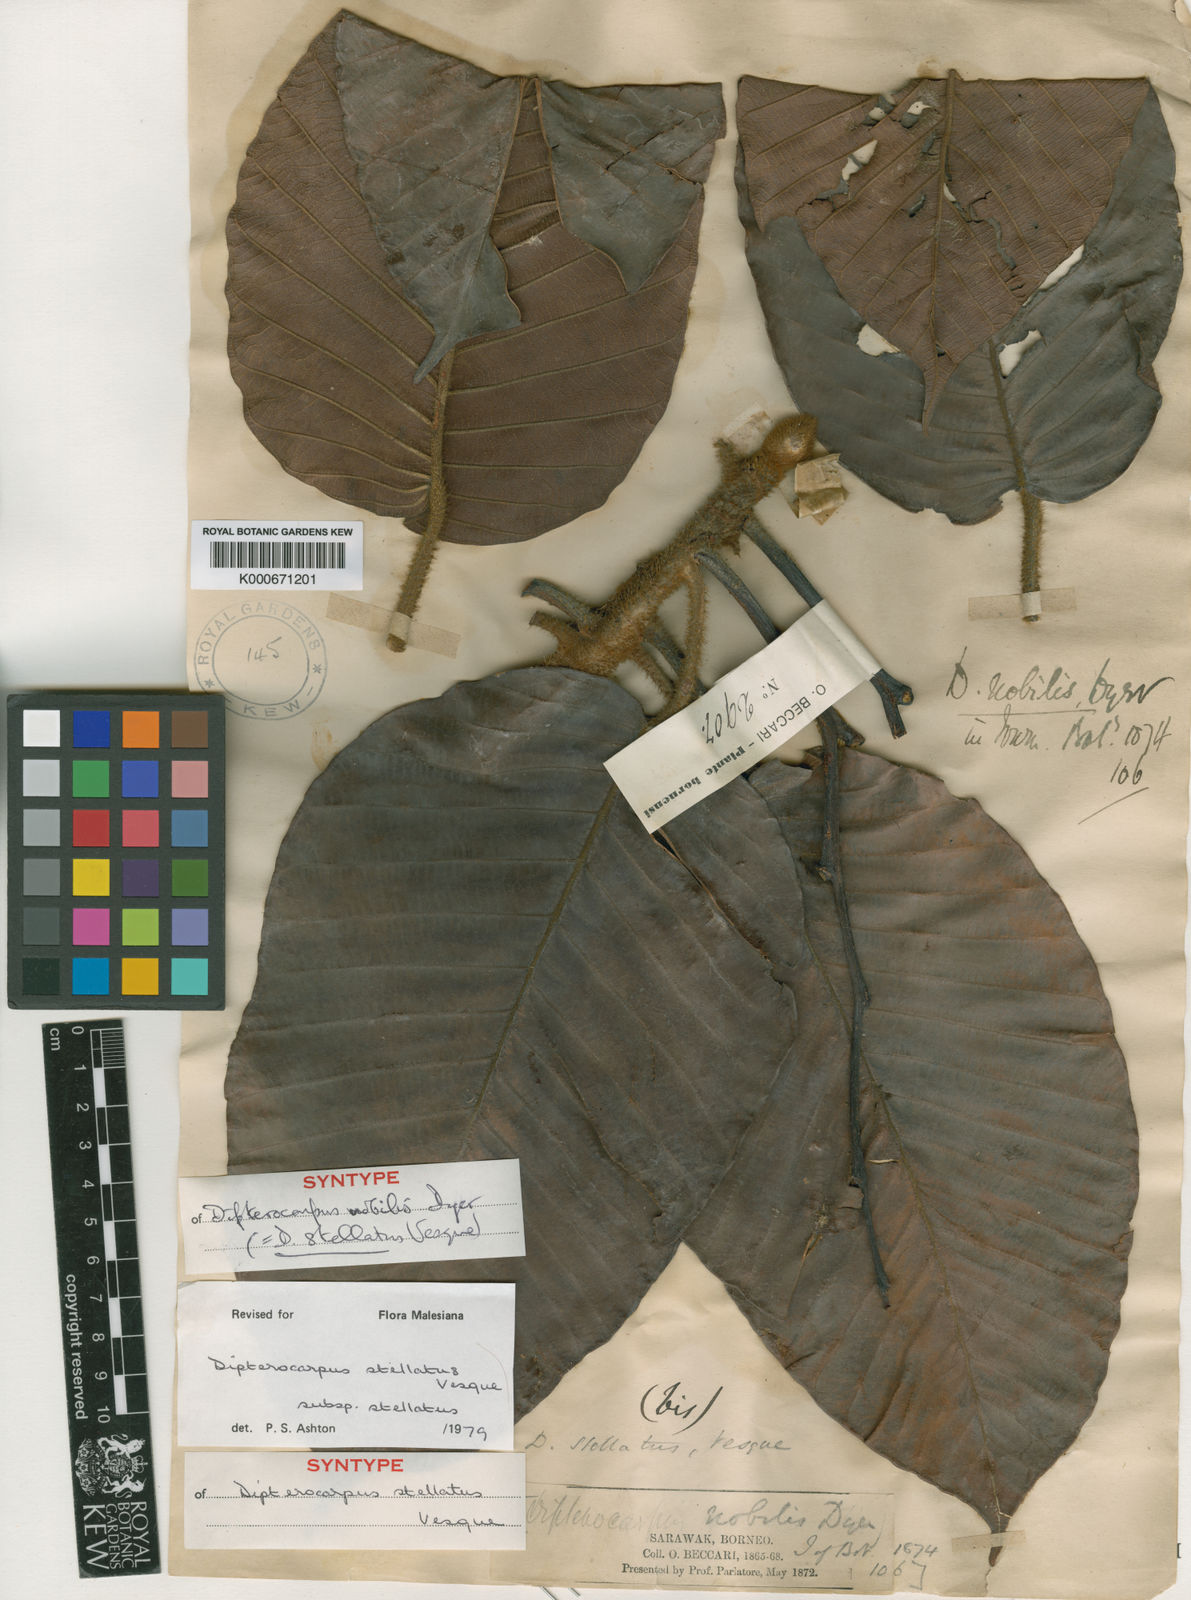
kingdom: Plantae
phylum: Tracheophyta
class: Magnoliopsida
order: Malvales
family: Dipterocarpaceae
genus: Dipterocarpus
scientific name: Dipterocarpus stellatus
